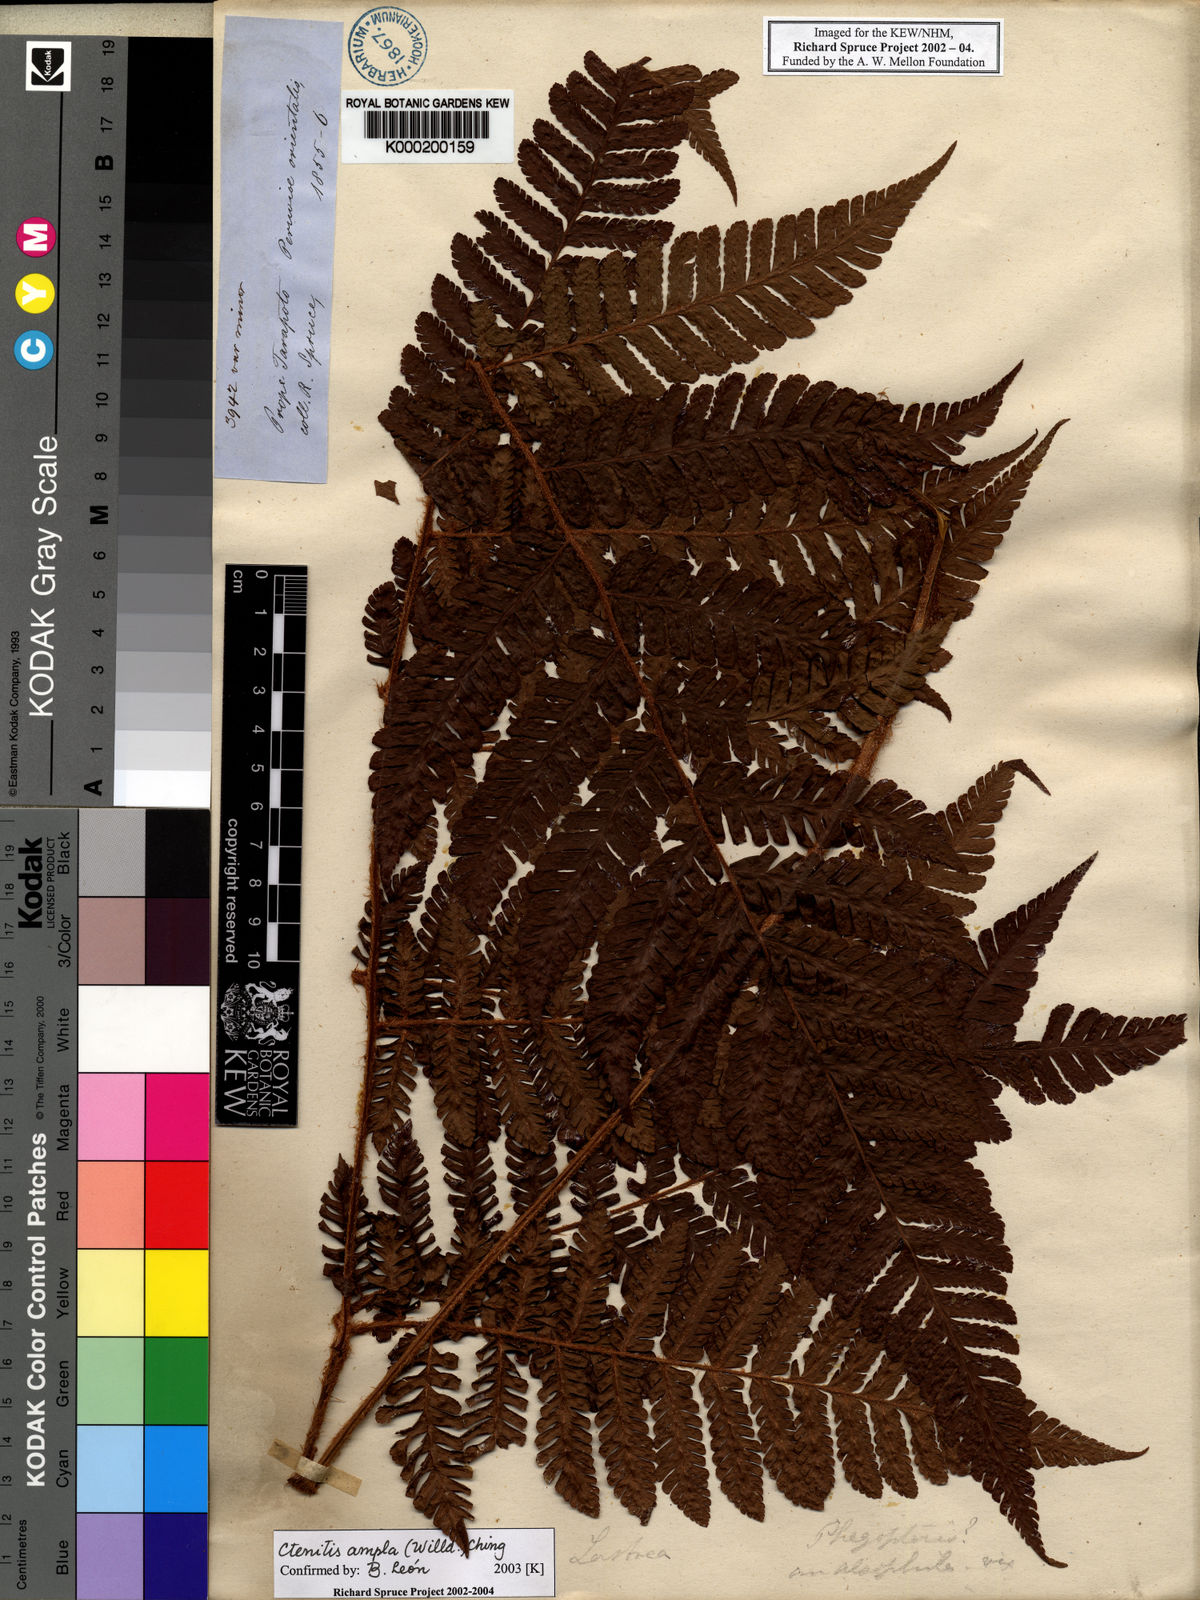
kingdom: Plantae
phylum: Tracheophyta
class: Polypodiopsida
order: Polypodiales
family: Dryopteridaceae
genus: Ctenitis
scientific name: Ctenitis sloanei
